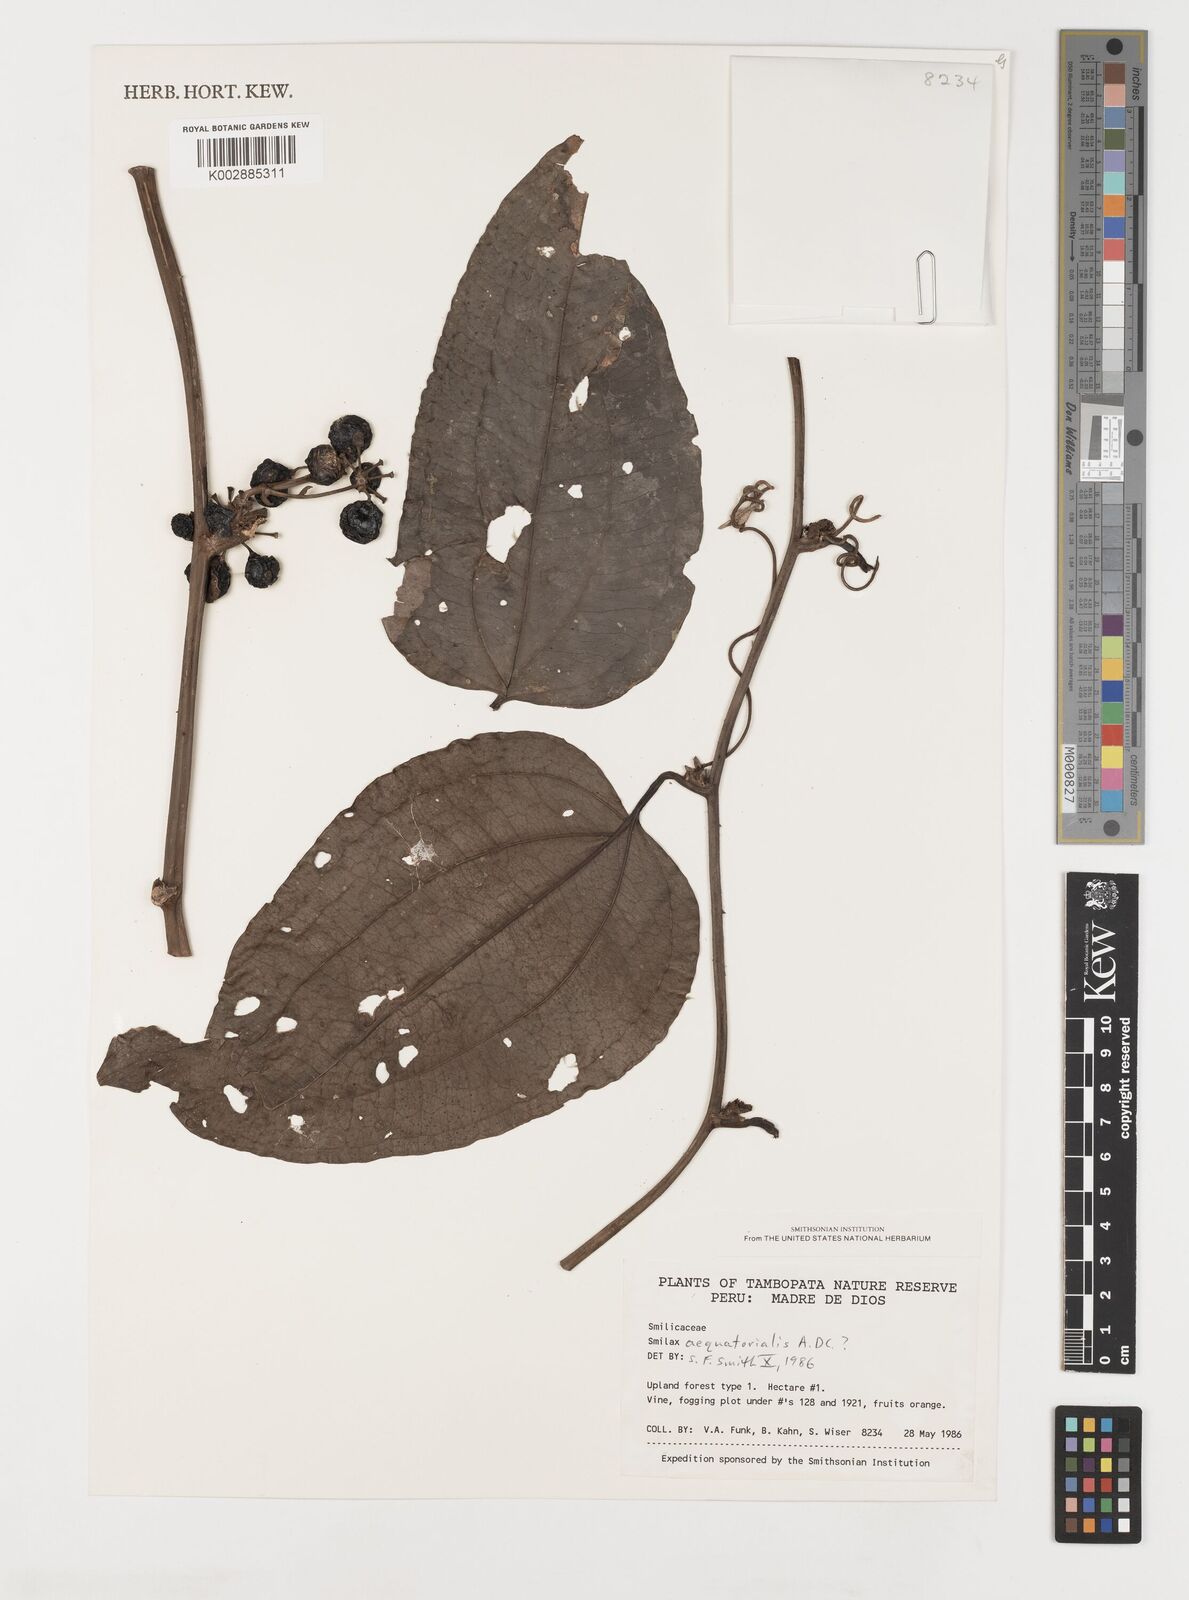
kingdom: Plantae
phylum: Tracheophyta
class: Liliopsida
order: Liliales
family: Smilacaceae
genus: Smilax
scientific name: Smilax siphilitica
